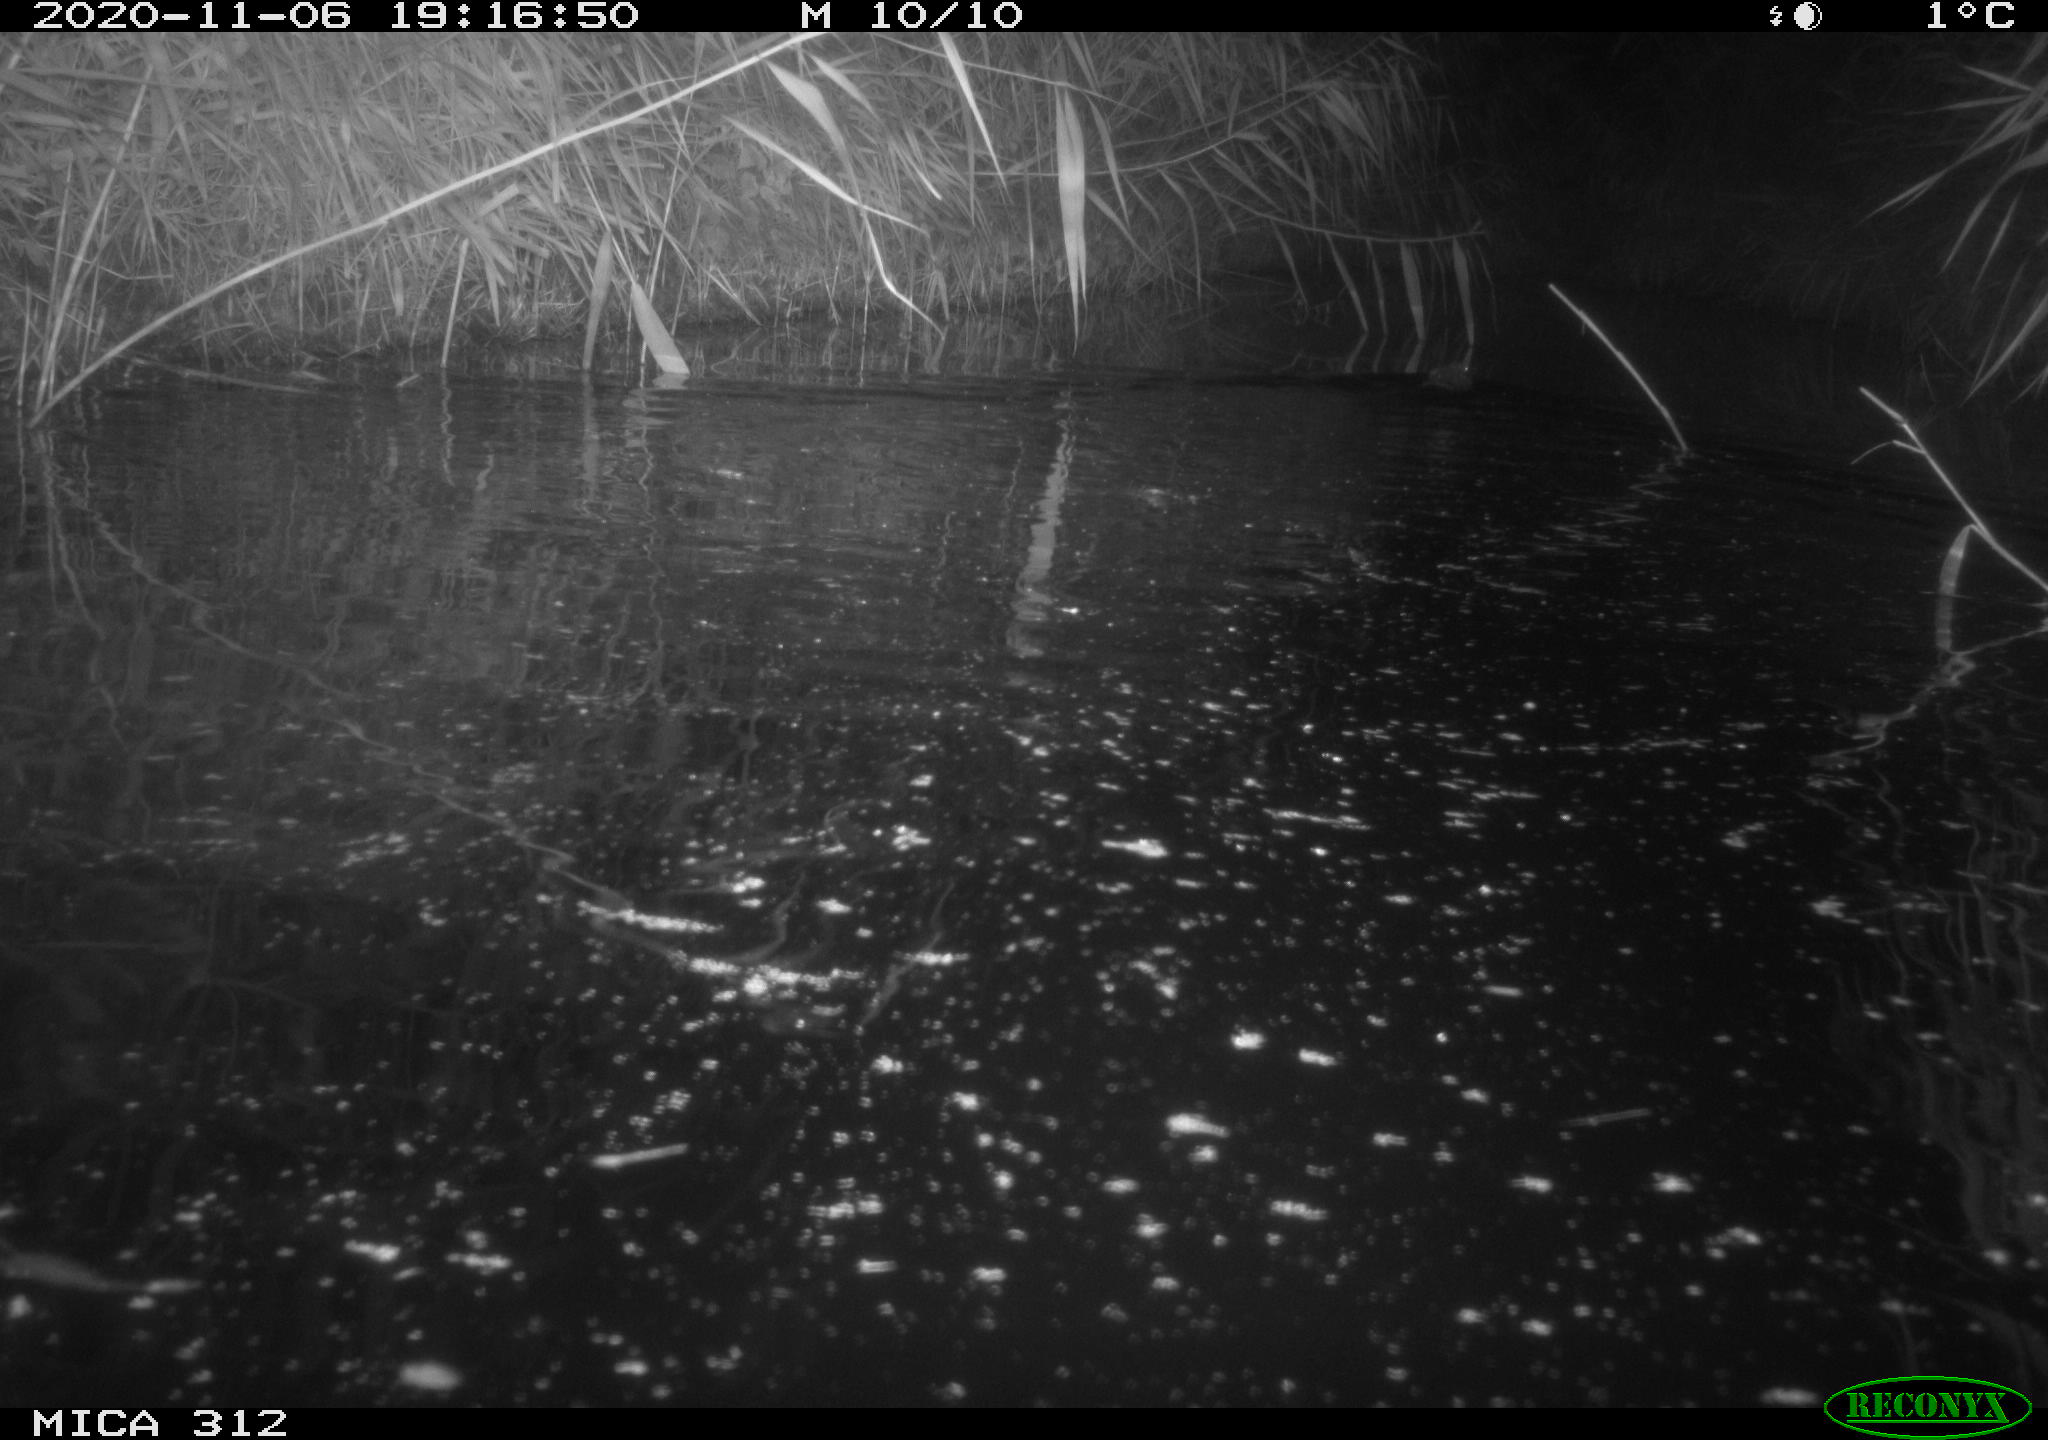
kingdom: Animalia
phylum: Chordata
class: Mammalia
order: Rodentia
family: Cricetidae
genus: Ondatra
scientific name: Ondatra zibethicus
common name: Muskrat
